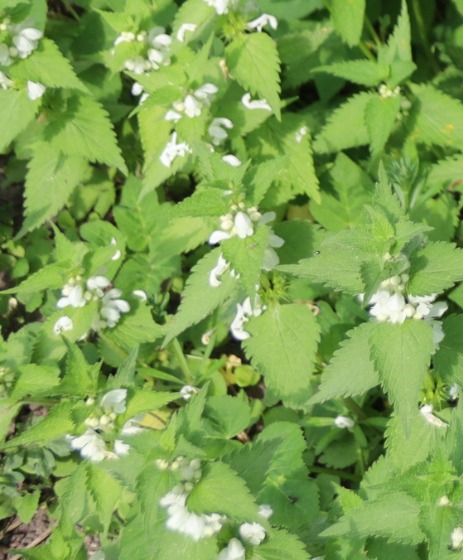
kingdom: Plantae
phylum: Tracheophyta
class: Magnoliopsida
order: Lamiales
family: Lamiaceae
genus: Lamium
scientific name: Lamium album
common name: Døvnælde
